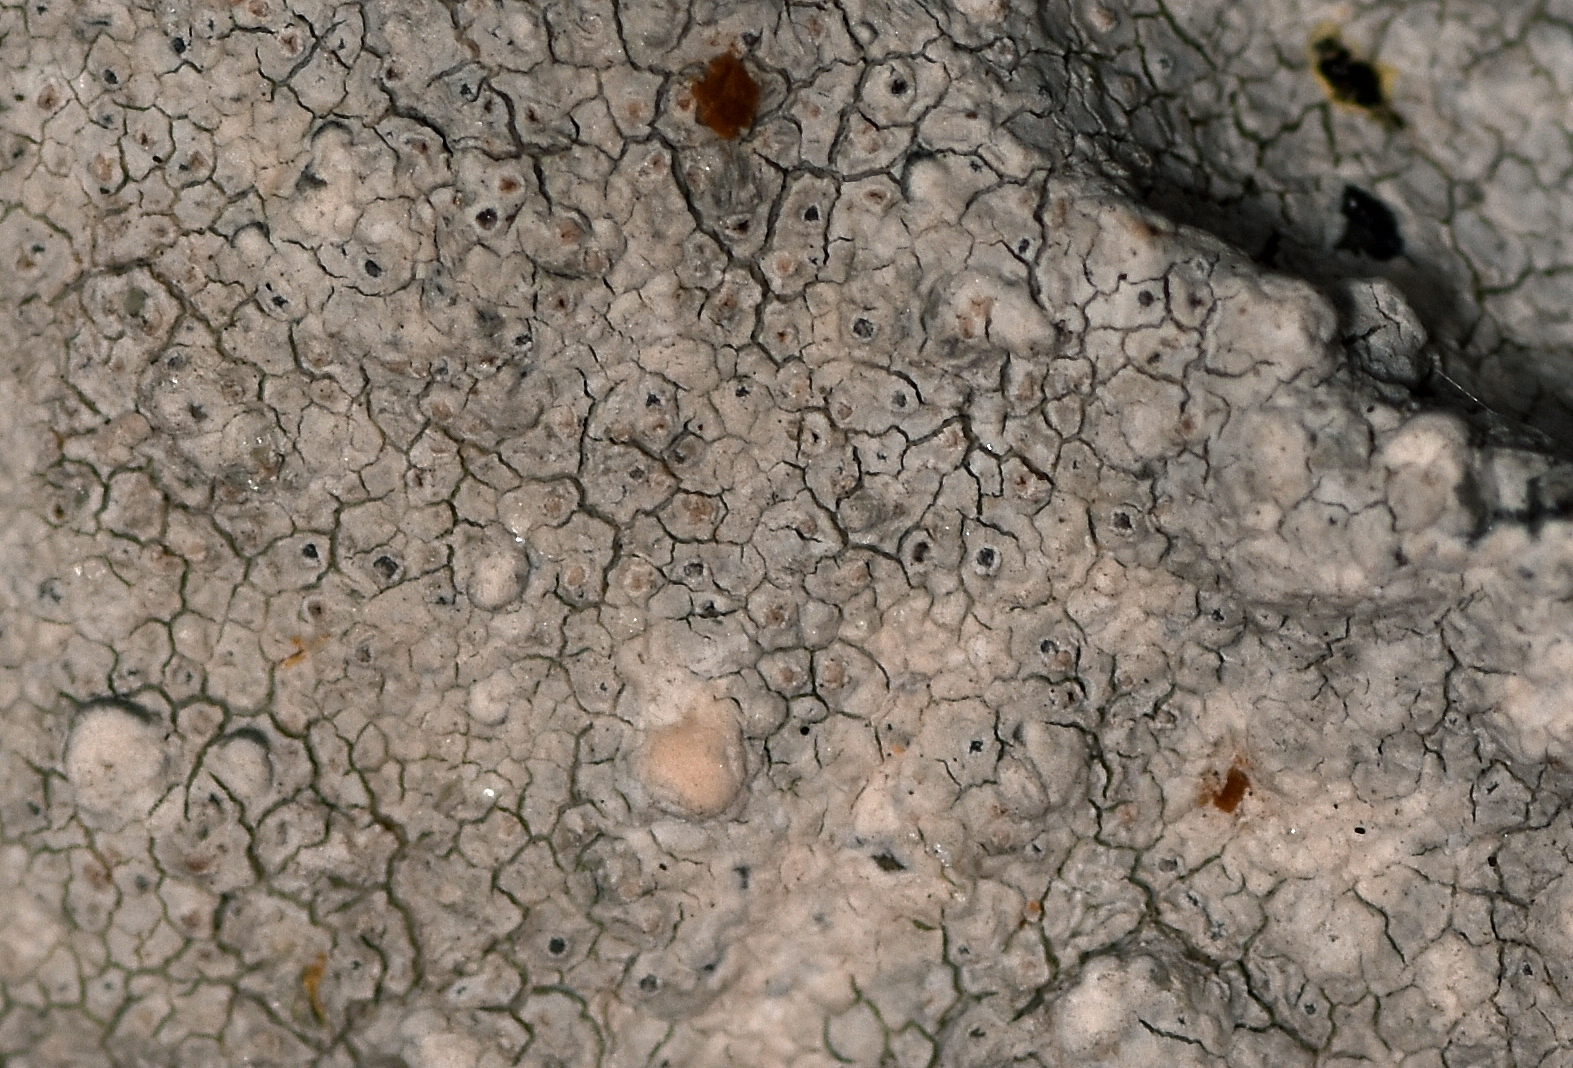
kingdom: Fungi
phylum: Ascomycota
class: Arthoniomycetes
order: Arthoniales
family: Arthoniaceae
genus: Arthonia
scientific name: Arthonia varians
